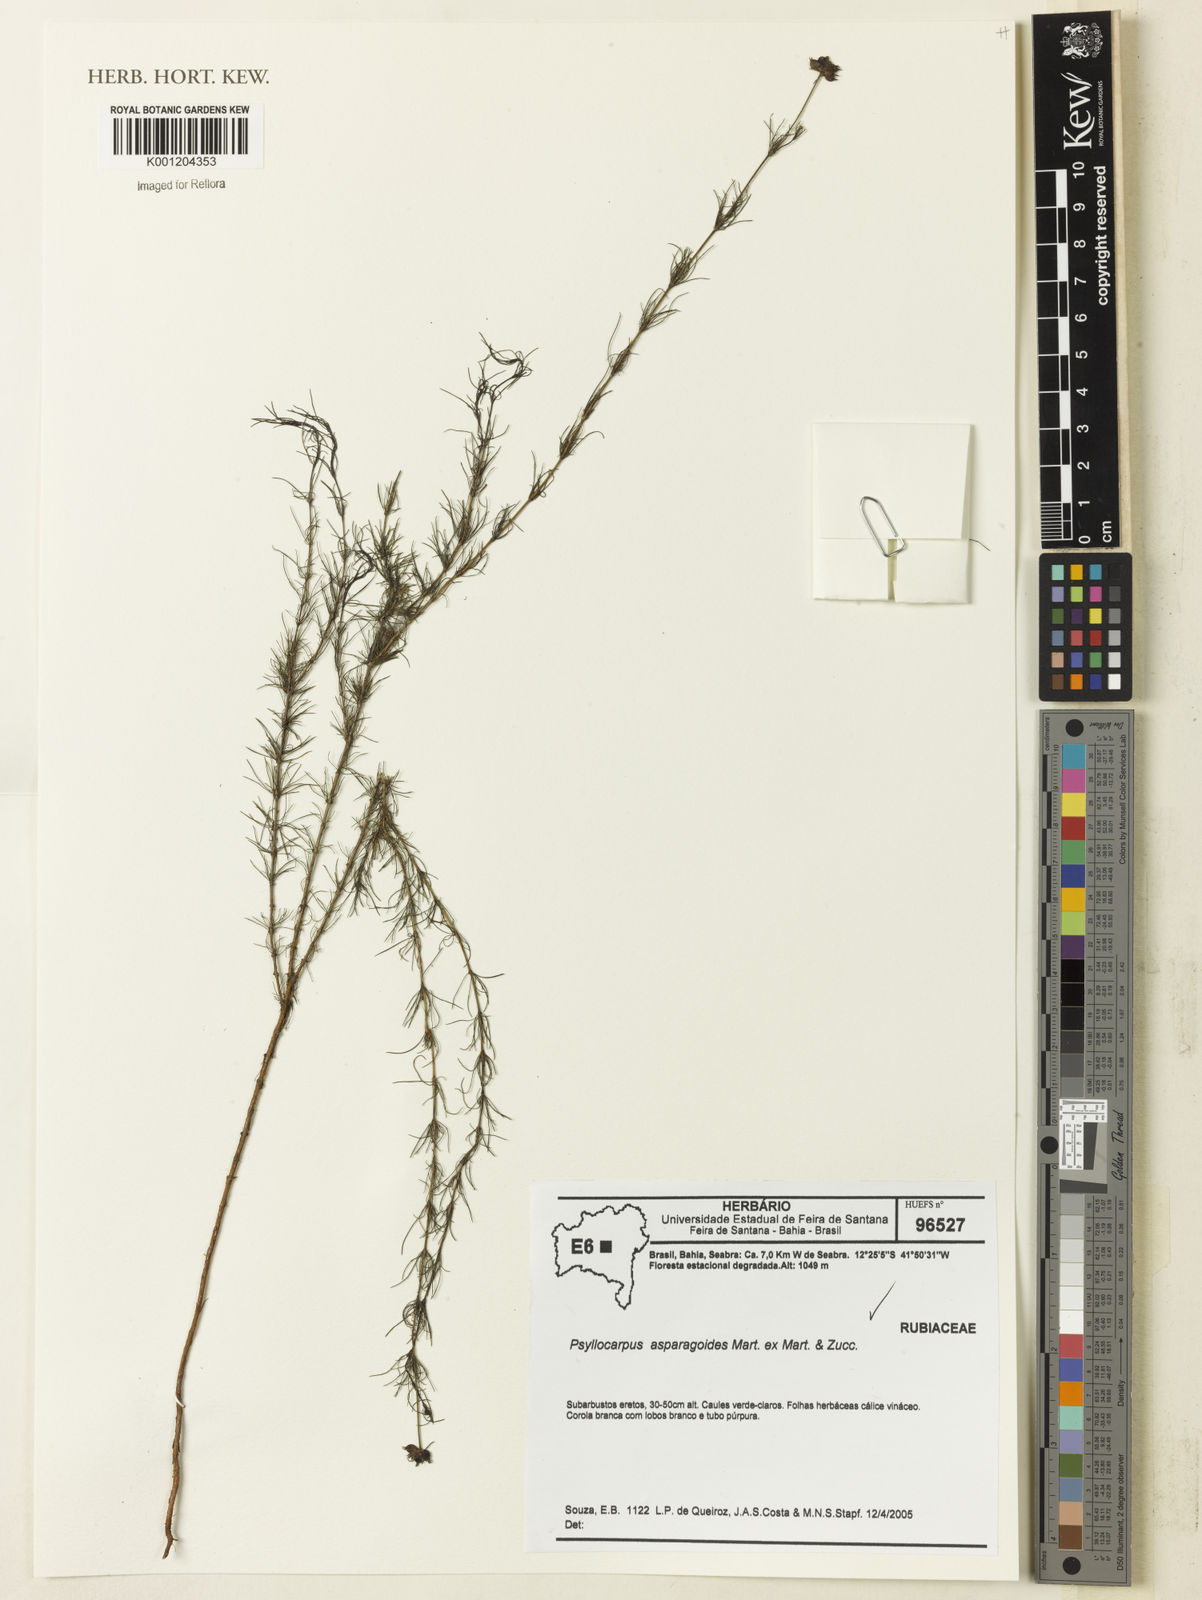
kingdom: Plantae
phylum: Tracheophyta
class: Magnoliopsida
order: Gentianales
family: Rubiaceae
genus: Psyllocarpus
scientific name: Psyllocarpus asparagoides
